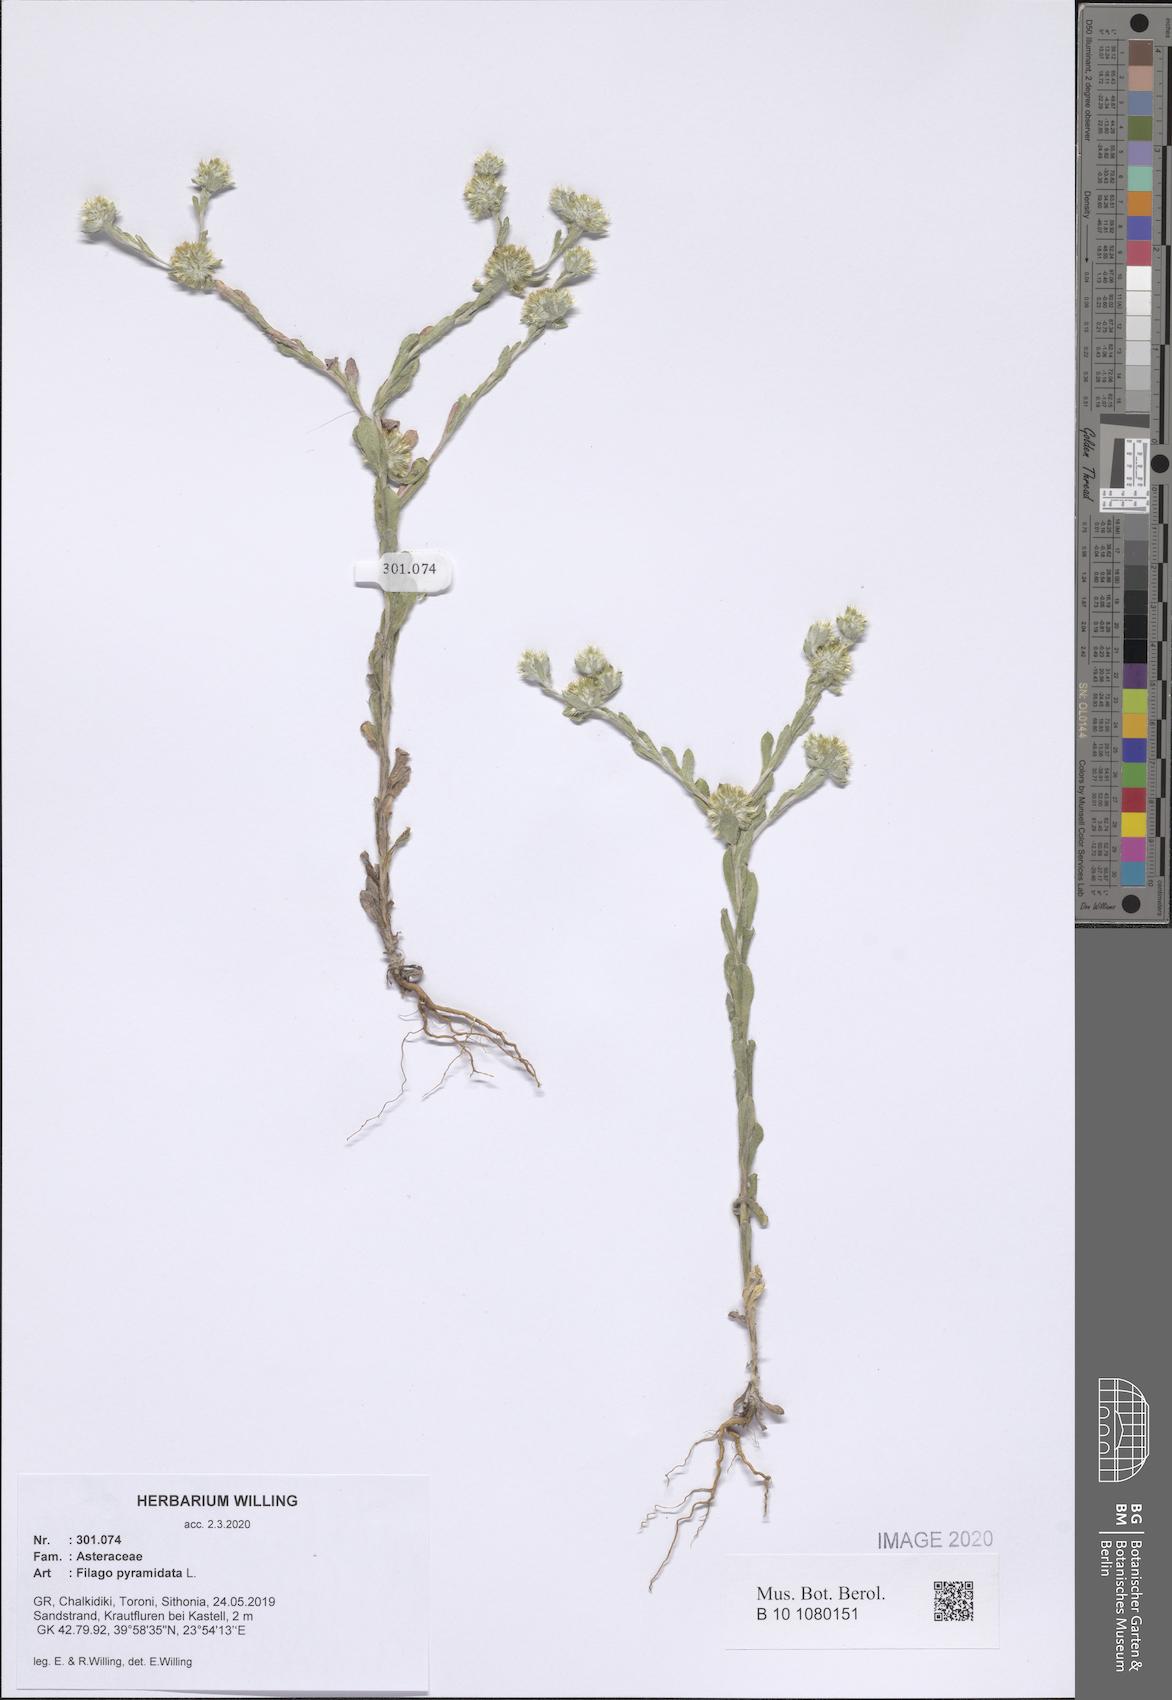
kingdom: Plantae
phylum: Tracheophyta
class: Magnoliopsida
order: Asterales
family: Asteraceae
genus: Filago
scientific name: Filago pyramidata
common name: Broad-leaved cudweed
